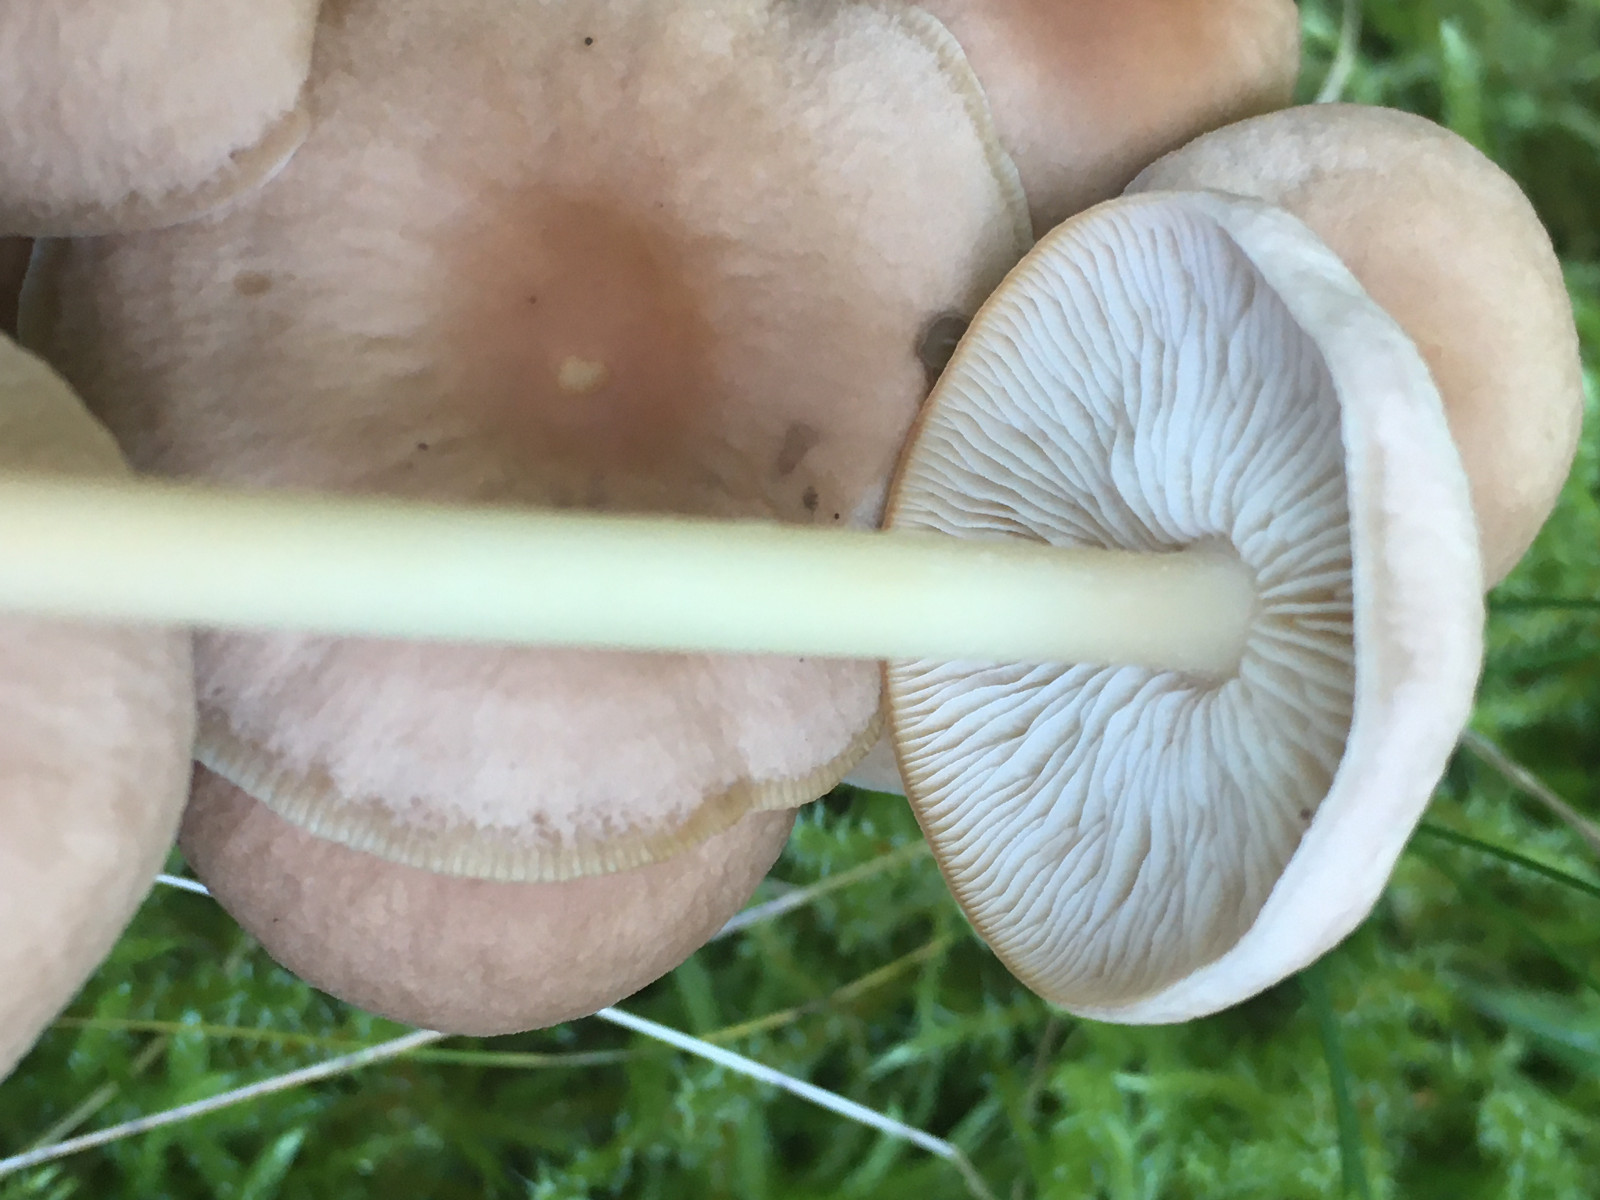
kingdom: Fungi
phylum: Basidiomycota
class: Agaricomycetes
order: Agaricales
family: Omphalotaceae
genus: Collybiopsis
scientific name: Collybiopsis confluens
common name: knippe-fladhat
